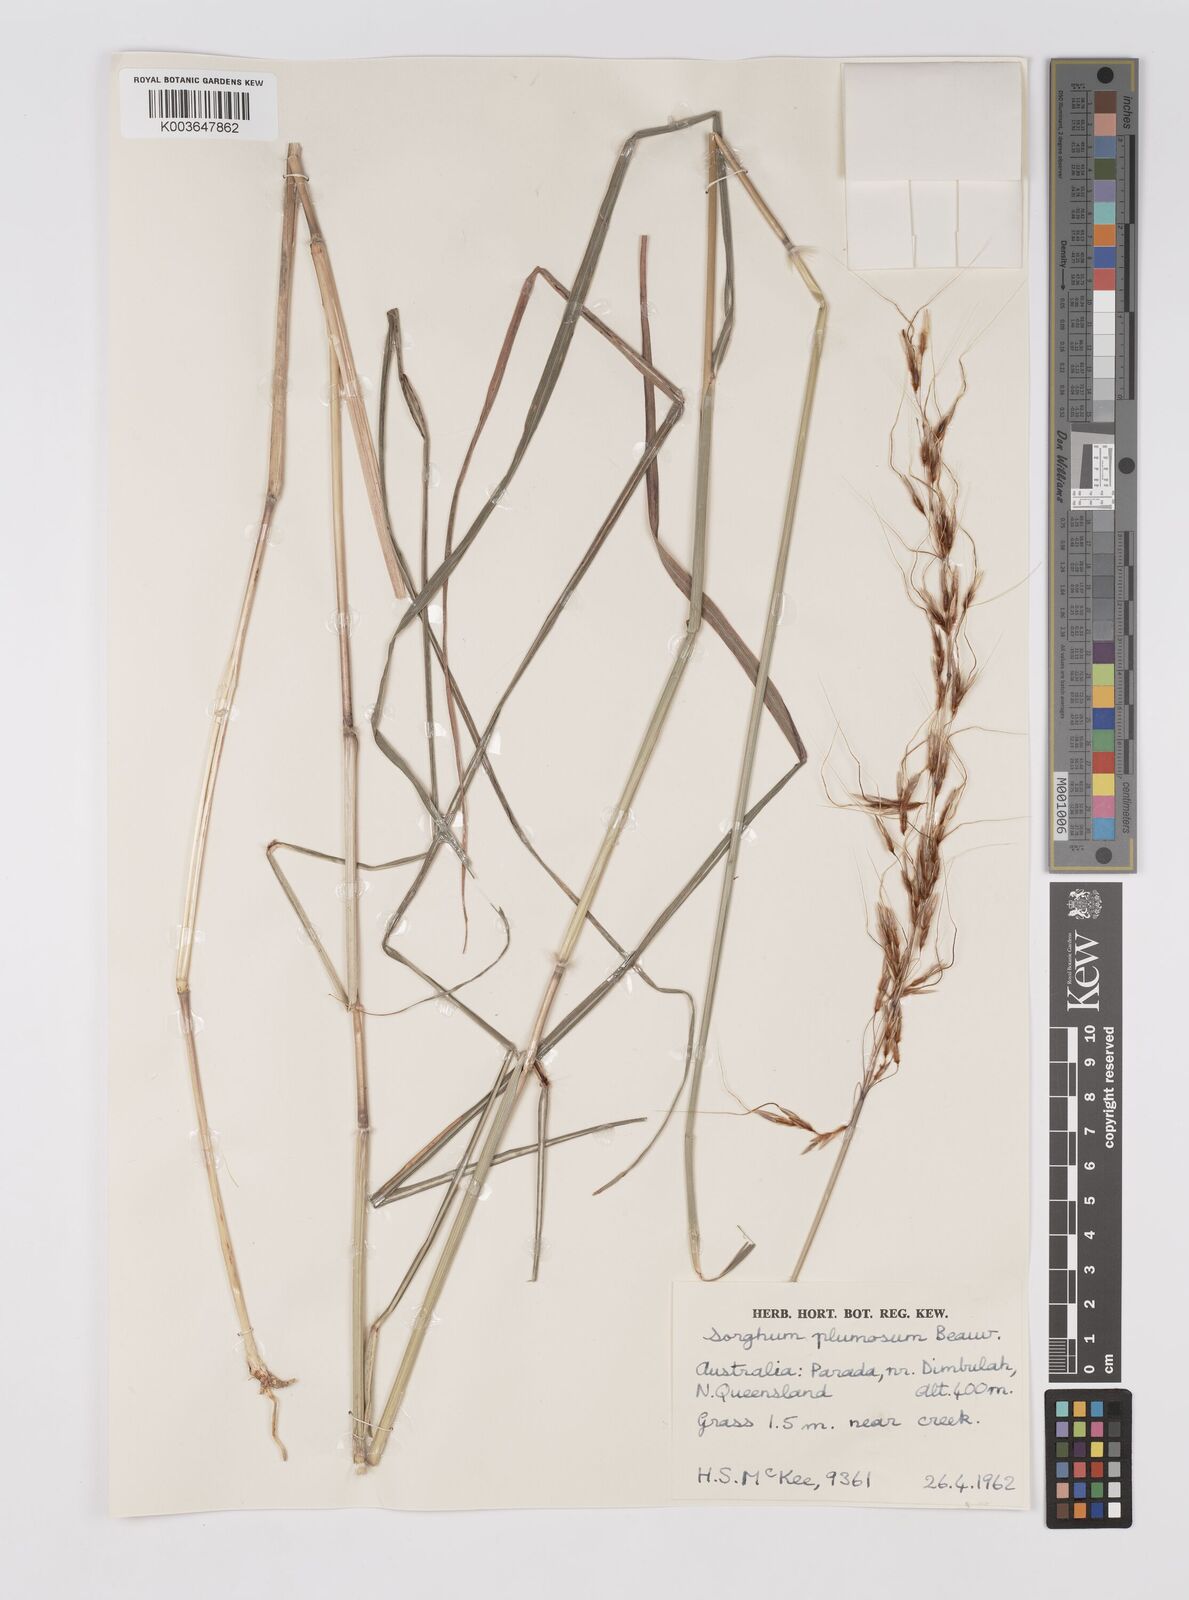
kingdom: Plantae
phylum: Tracheophyta
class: Liliopsida
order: Poales
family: Poaceae
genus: Sarga
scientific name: Sarga plumosa
